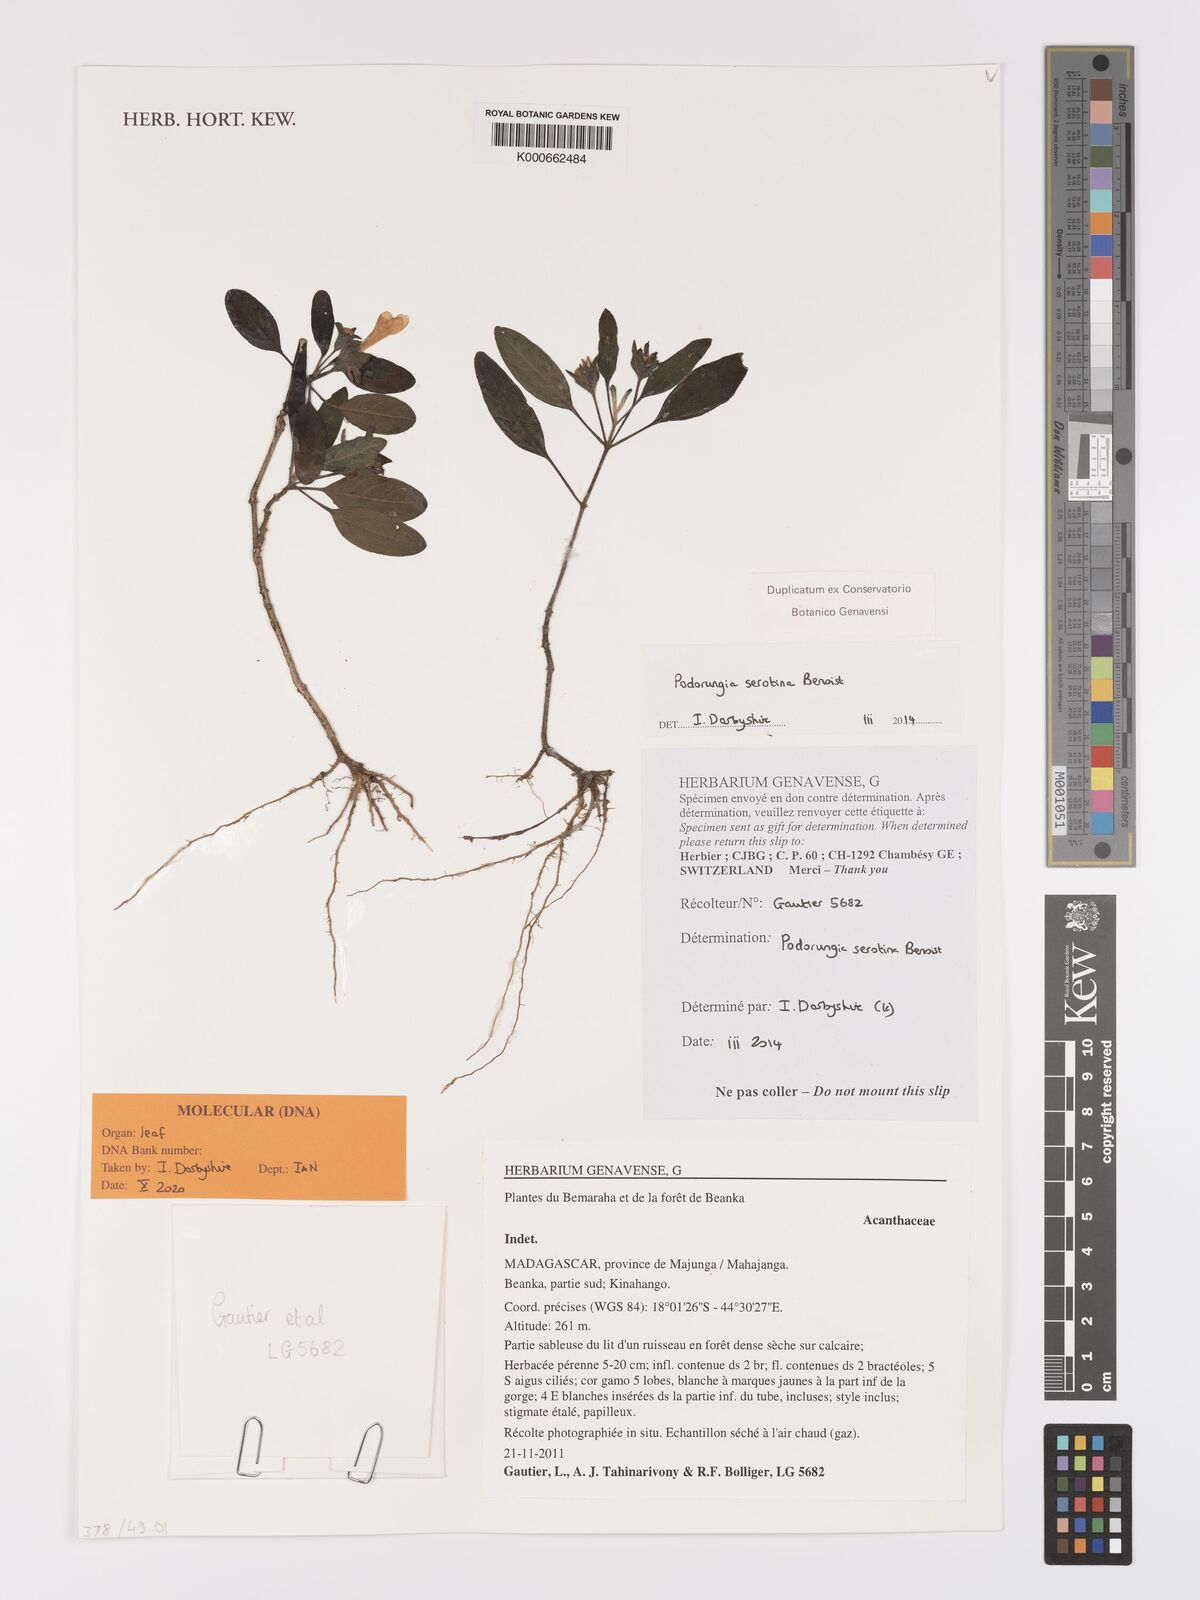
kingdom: Plantae
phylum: Tracheophyta
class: Magnoliopsida
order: Lamiales
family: Acanthaceae
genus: Podorungia
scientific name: Podorungia serotina
